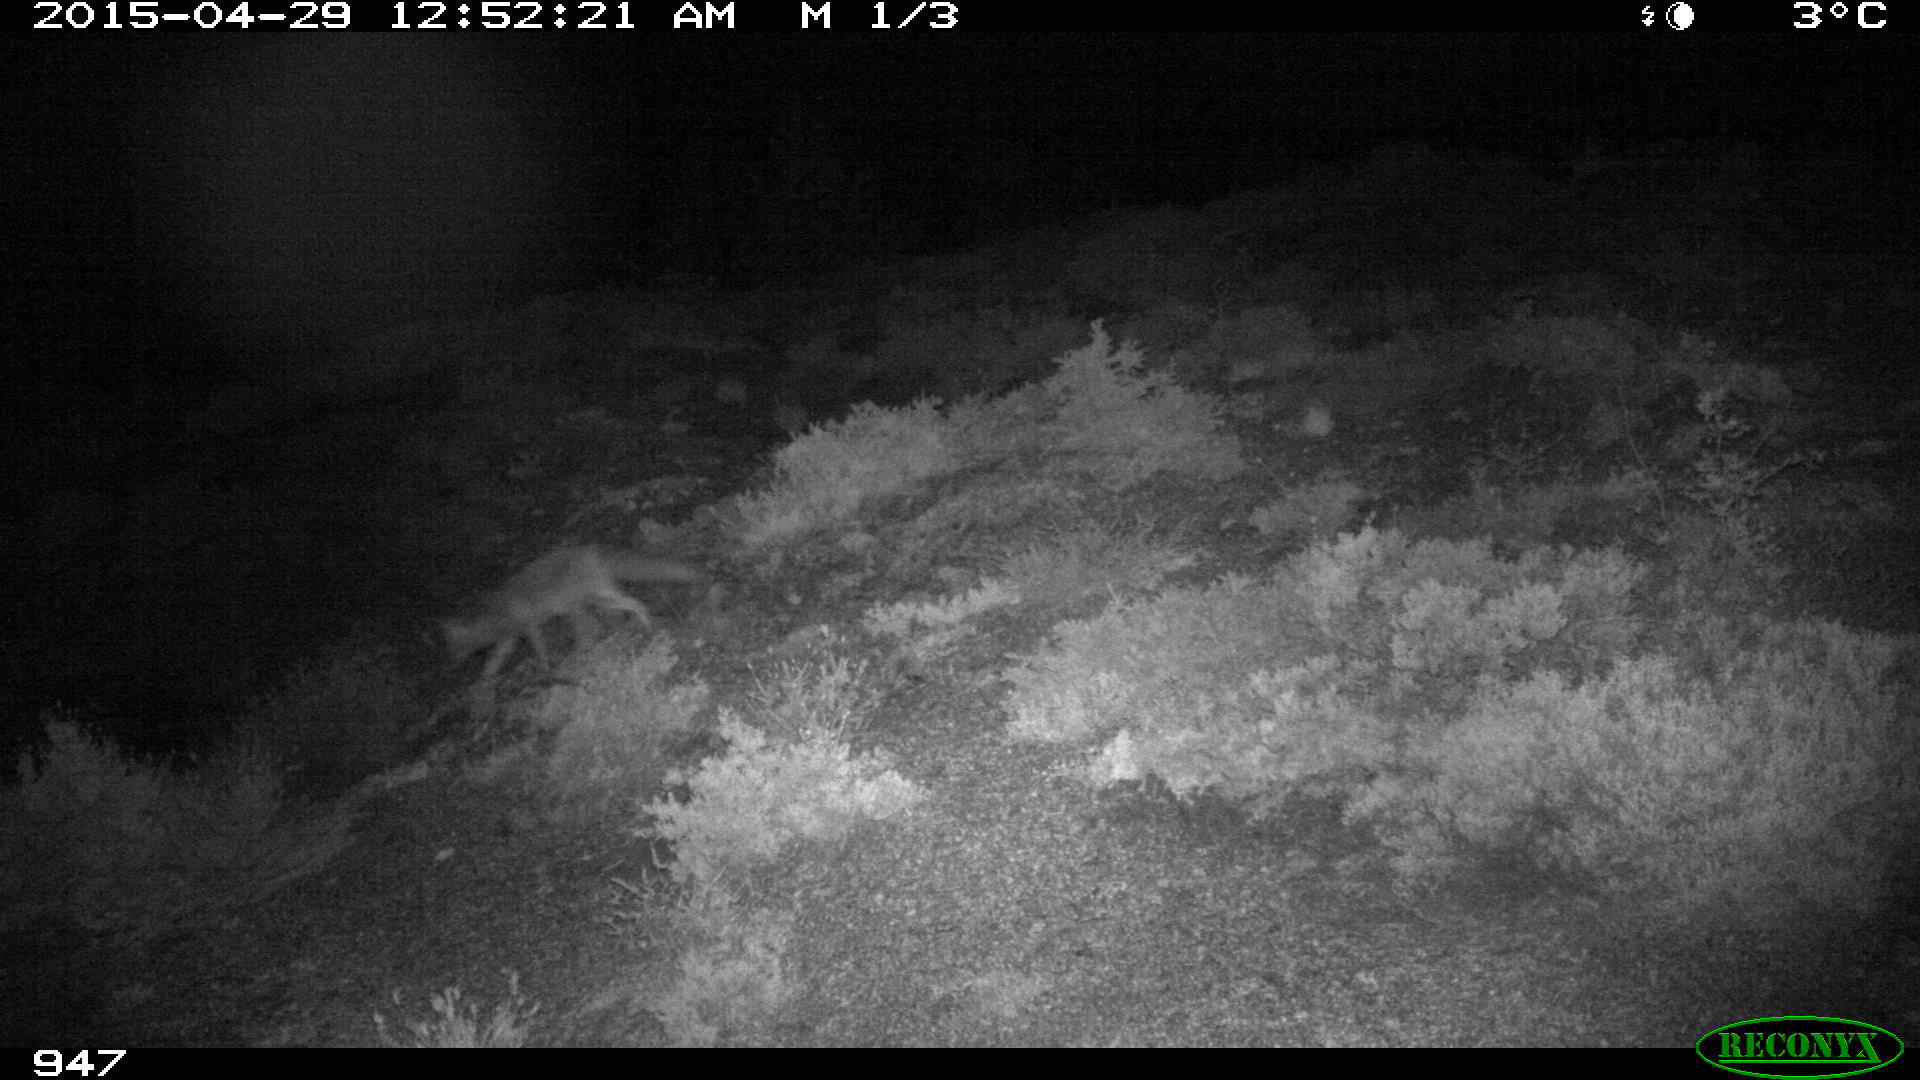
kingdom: Animalia
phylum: Chordata
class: Mammalia
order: Carnivora
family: Canidae
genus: Vulpes
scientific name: Vulpes vulpes
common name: Red fox
